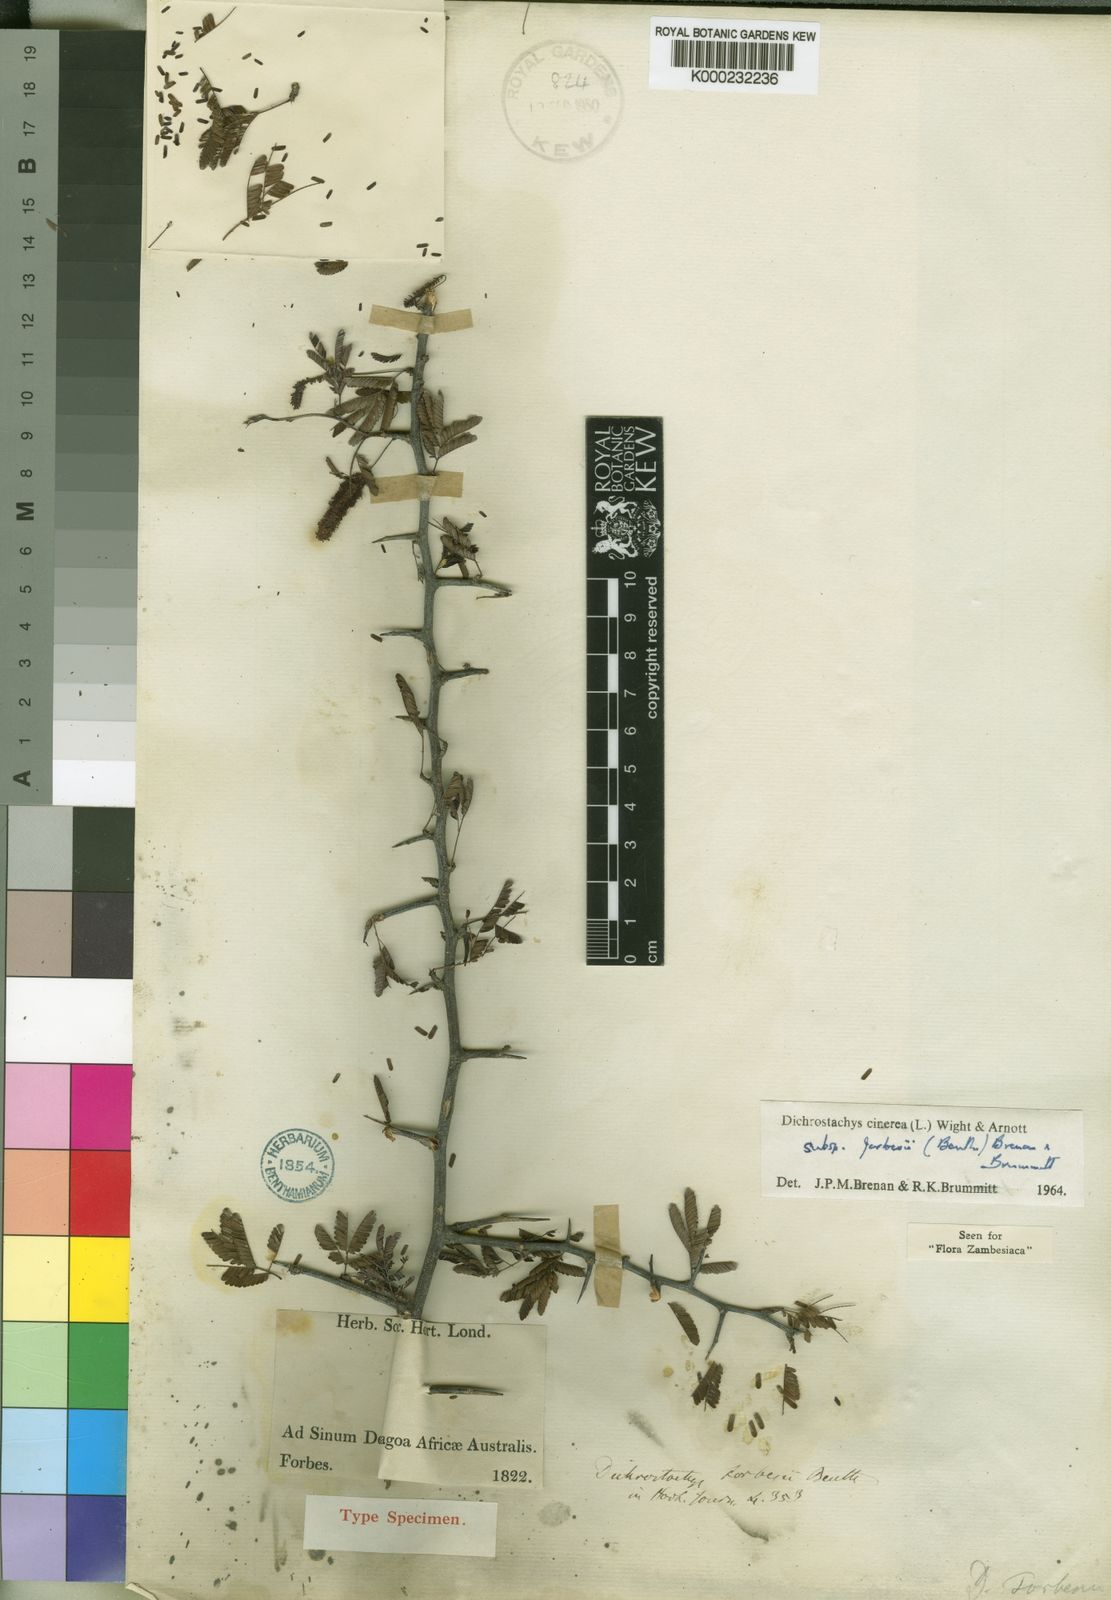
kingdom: Plantae
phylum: Tracheophyta
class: Magnoliopsida
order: Fabales
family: Fabaceae
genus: Dichrostachys
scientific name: Dichrostachys cinerea
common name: Sicklebush
